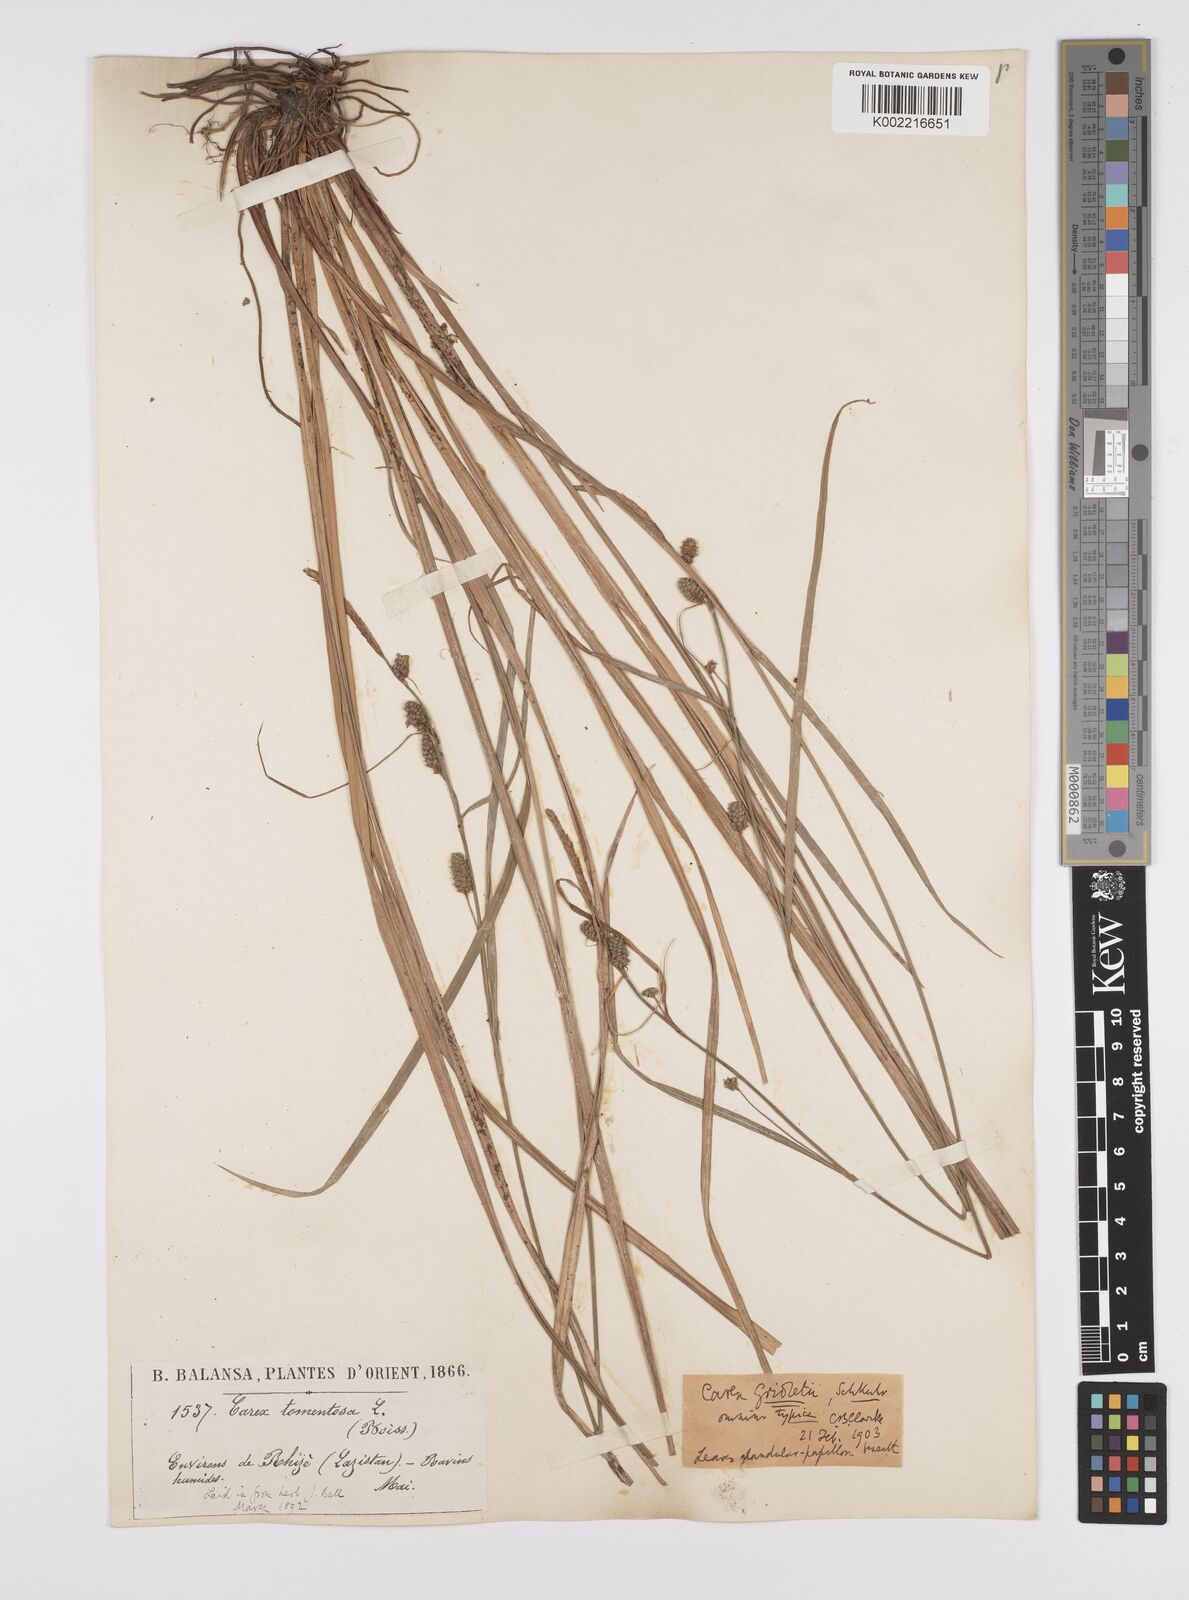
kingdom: Plantae
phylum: Tracheophyta
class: Liliopsida
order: Poales
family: Cyperaceae
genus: Carex
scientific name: Carex grioletii
